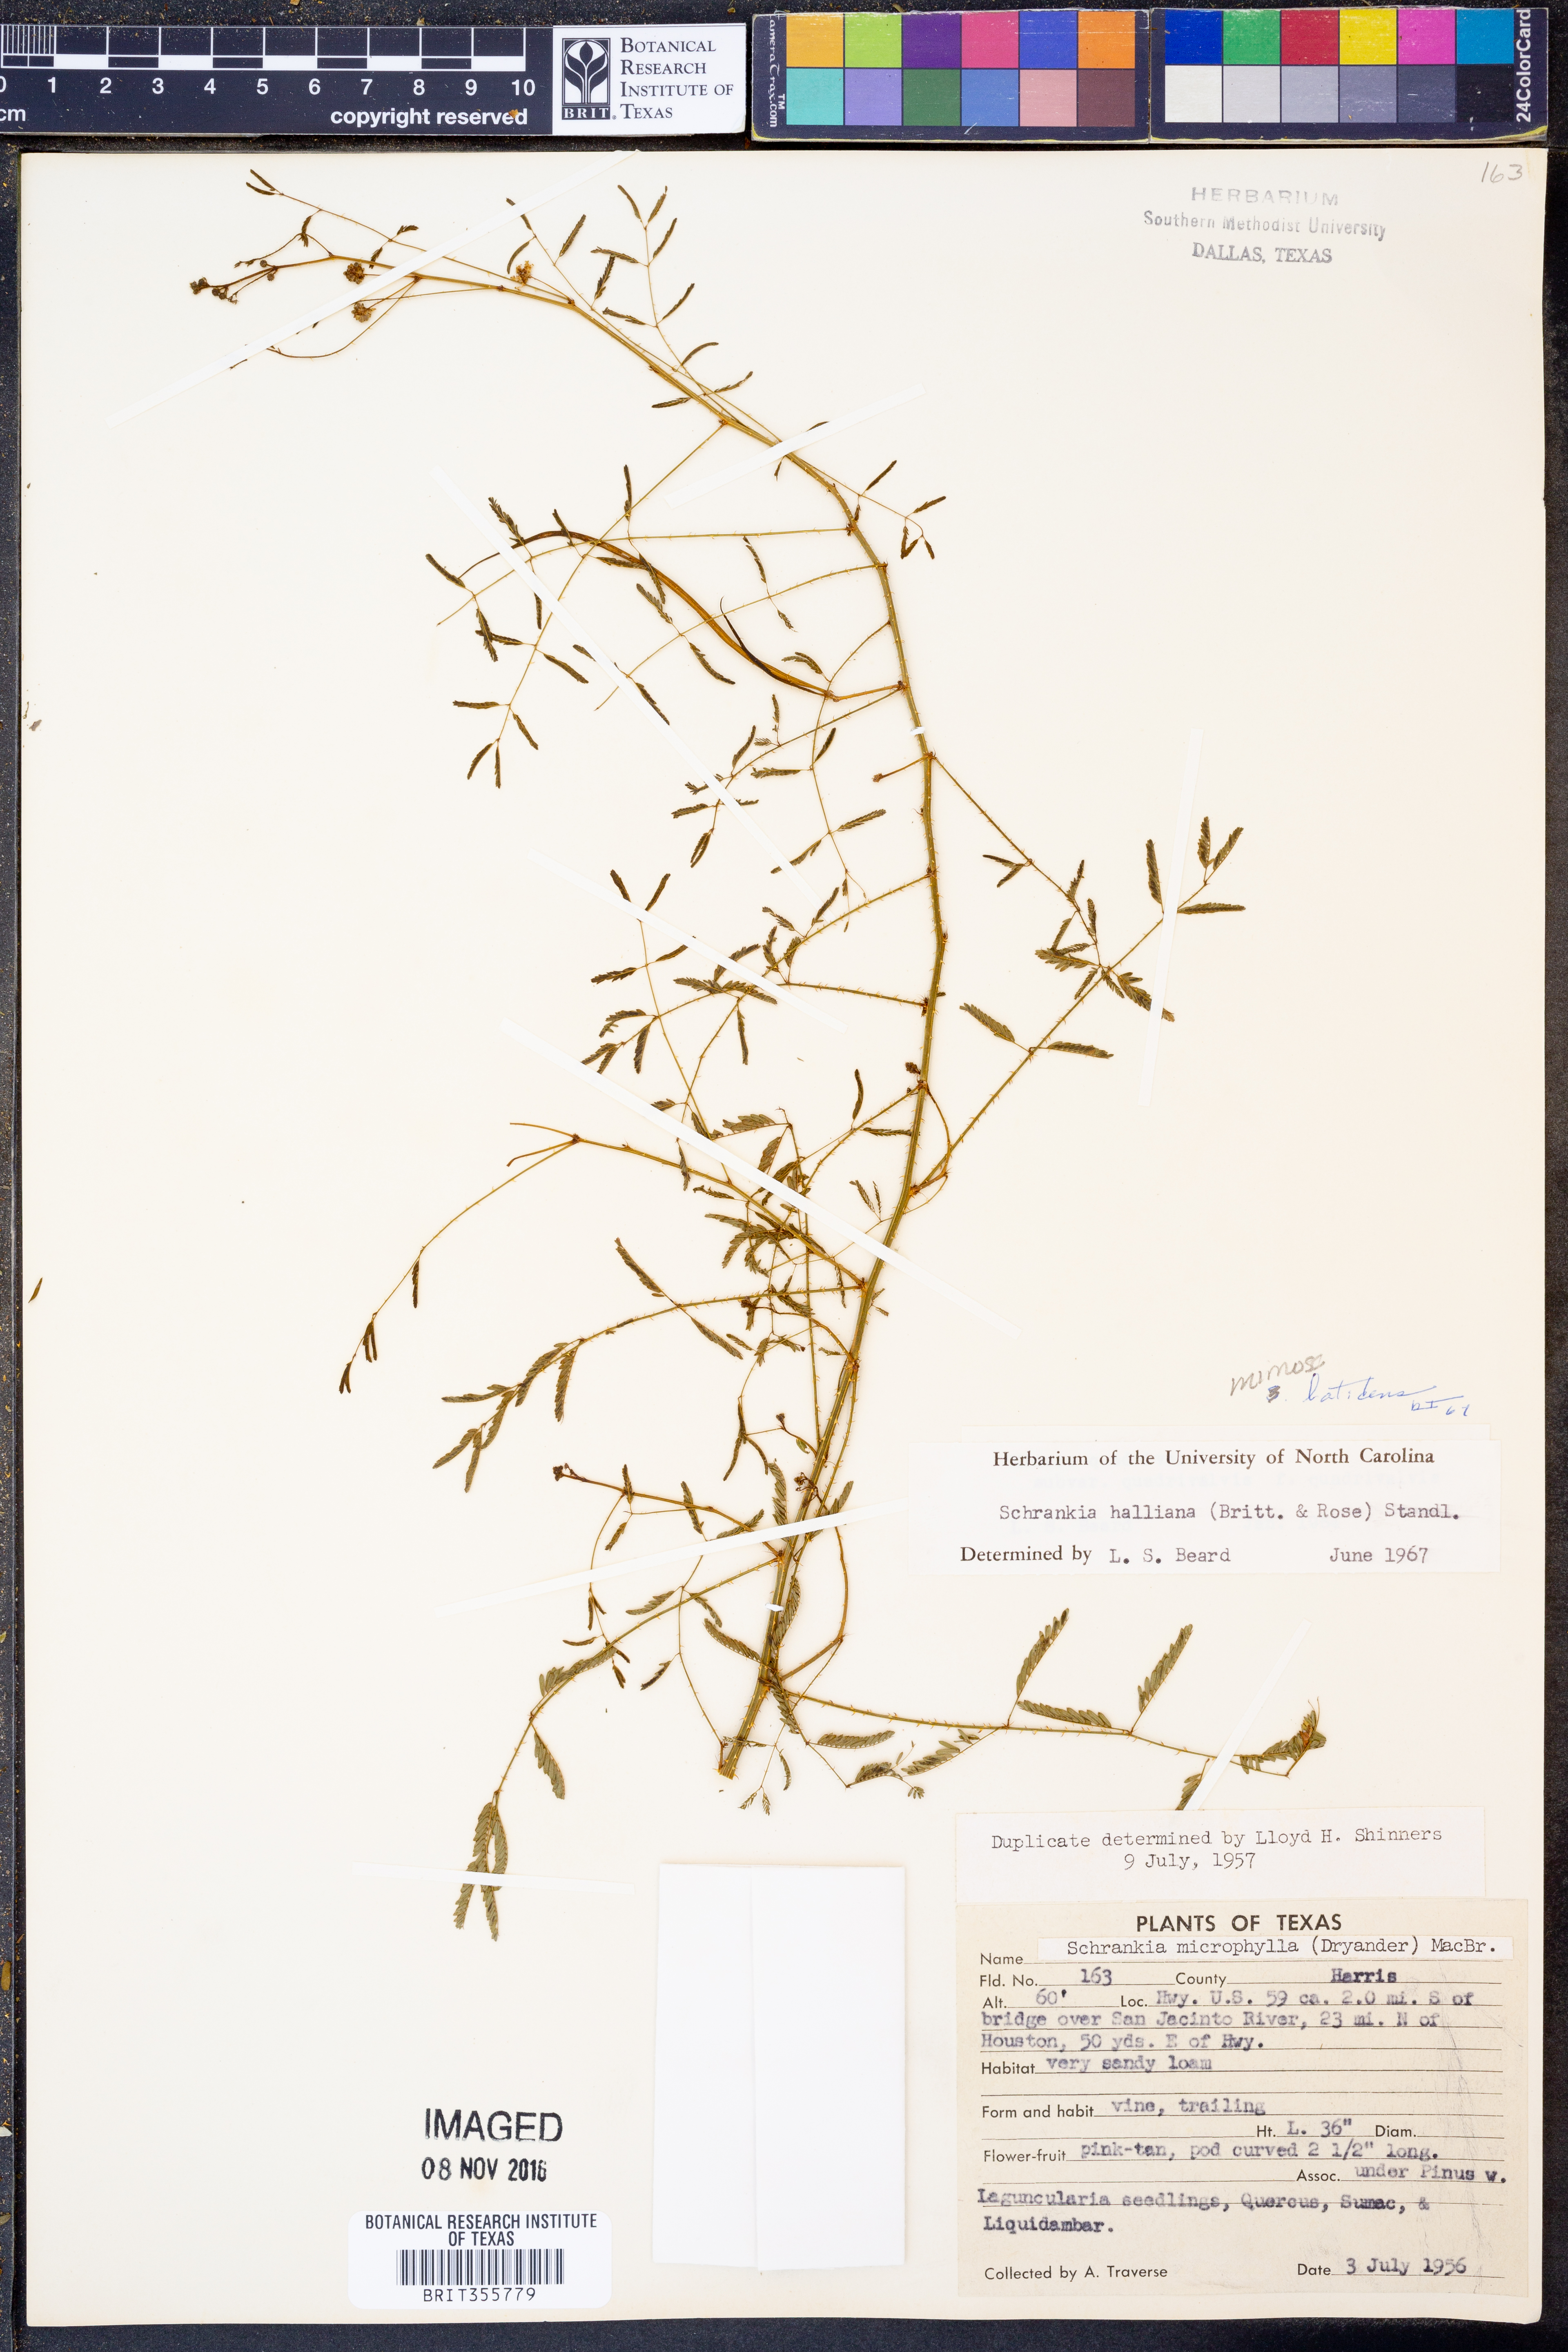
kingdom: Plantae
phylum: Tracheophyta
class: Magnoliopsida
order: Fabales
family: Fabaceae
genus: Mimosa
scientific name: Mimosa latidens
